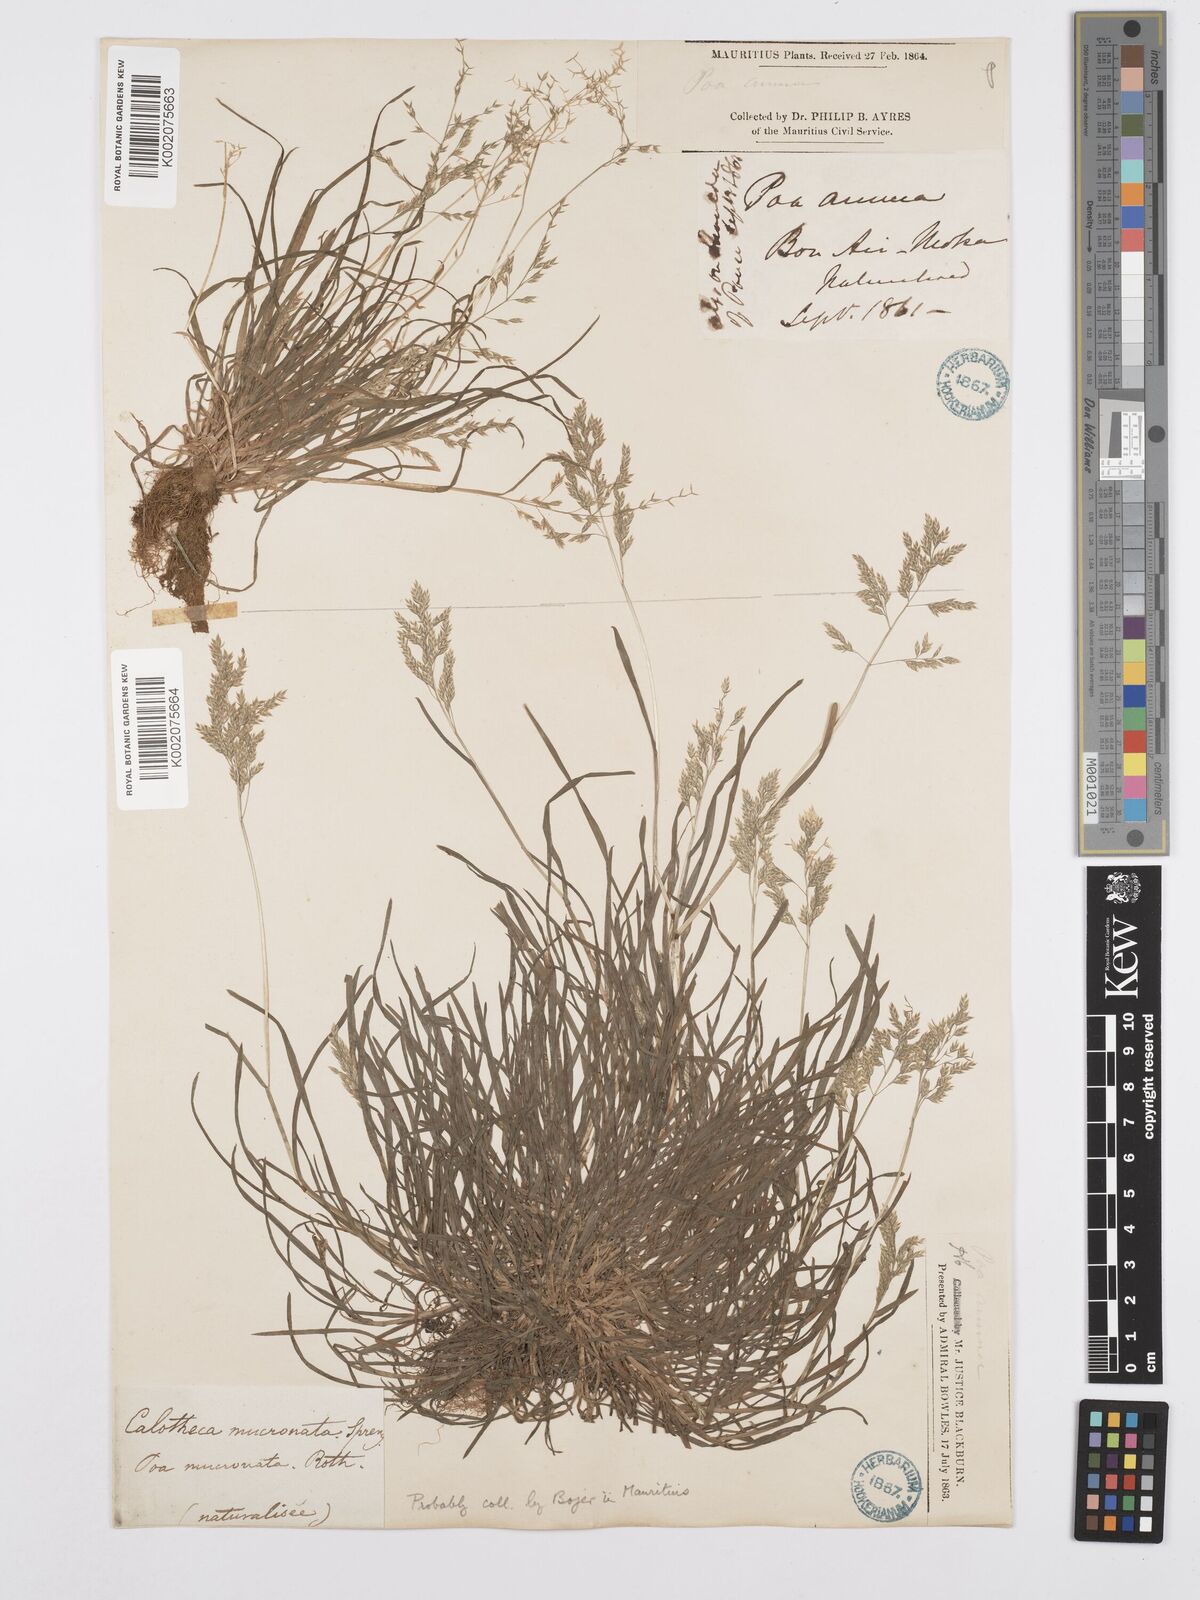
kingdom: Plantae
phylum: Tracheophyta
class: Liliopsida
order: Poales
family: Poaceae
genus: Poa
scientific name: Poa annua
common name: Annual bluegrass
